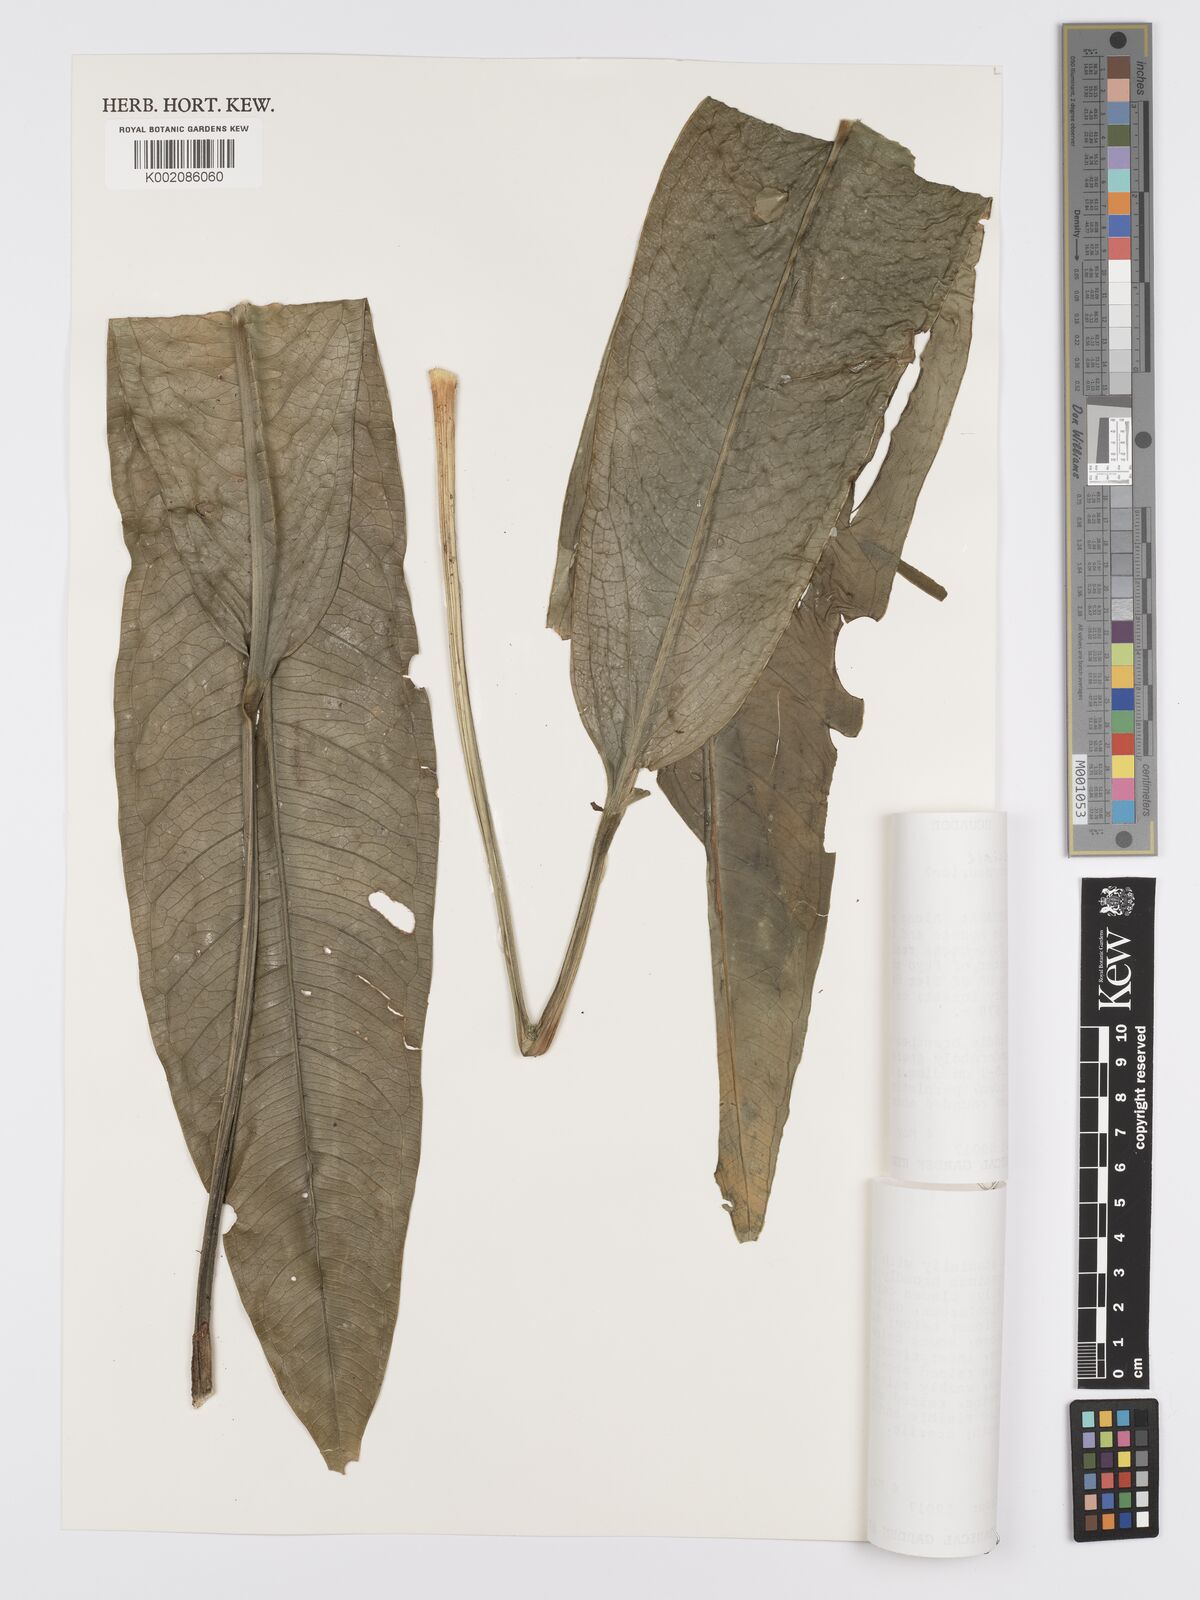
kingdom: Plantae
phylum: Tracheophyta
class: Liliopsida
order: Alismatales
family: Araceae
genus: Anthurium
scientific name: Anthurium fasciale
